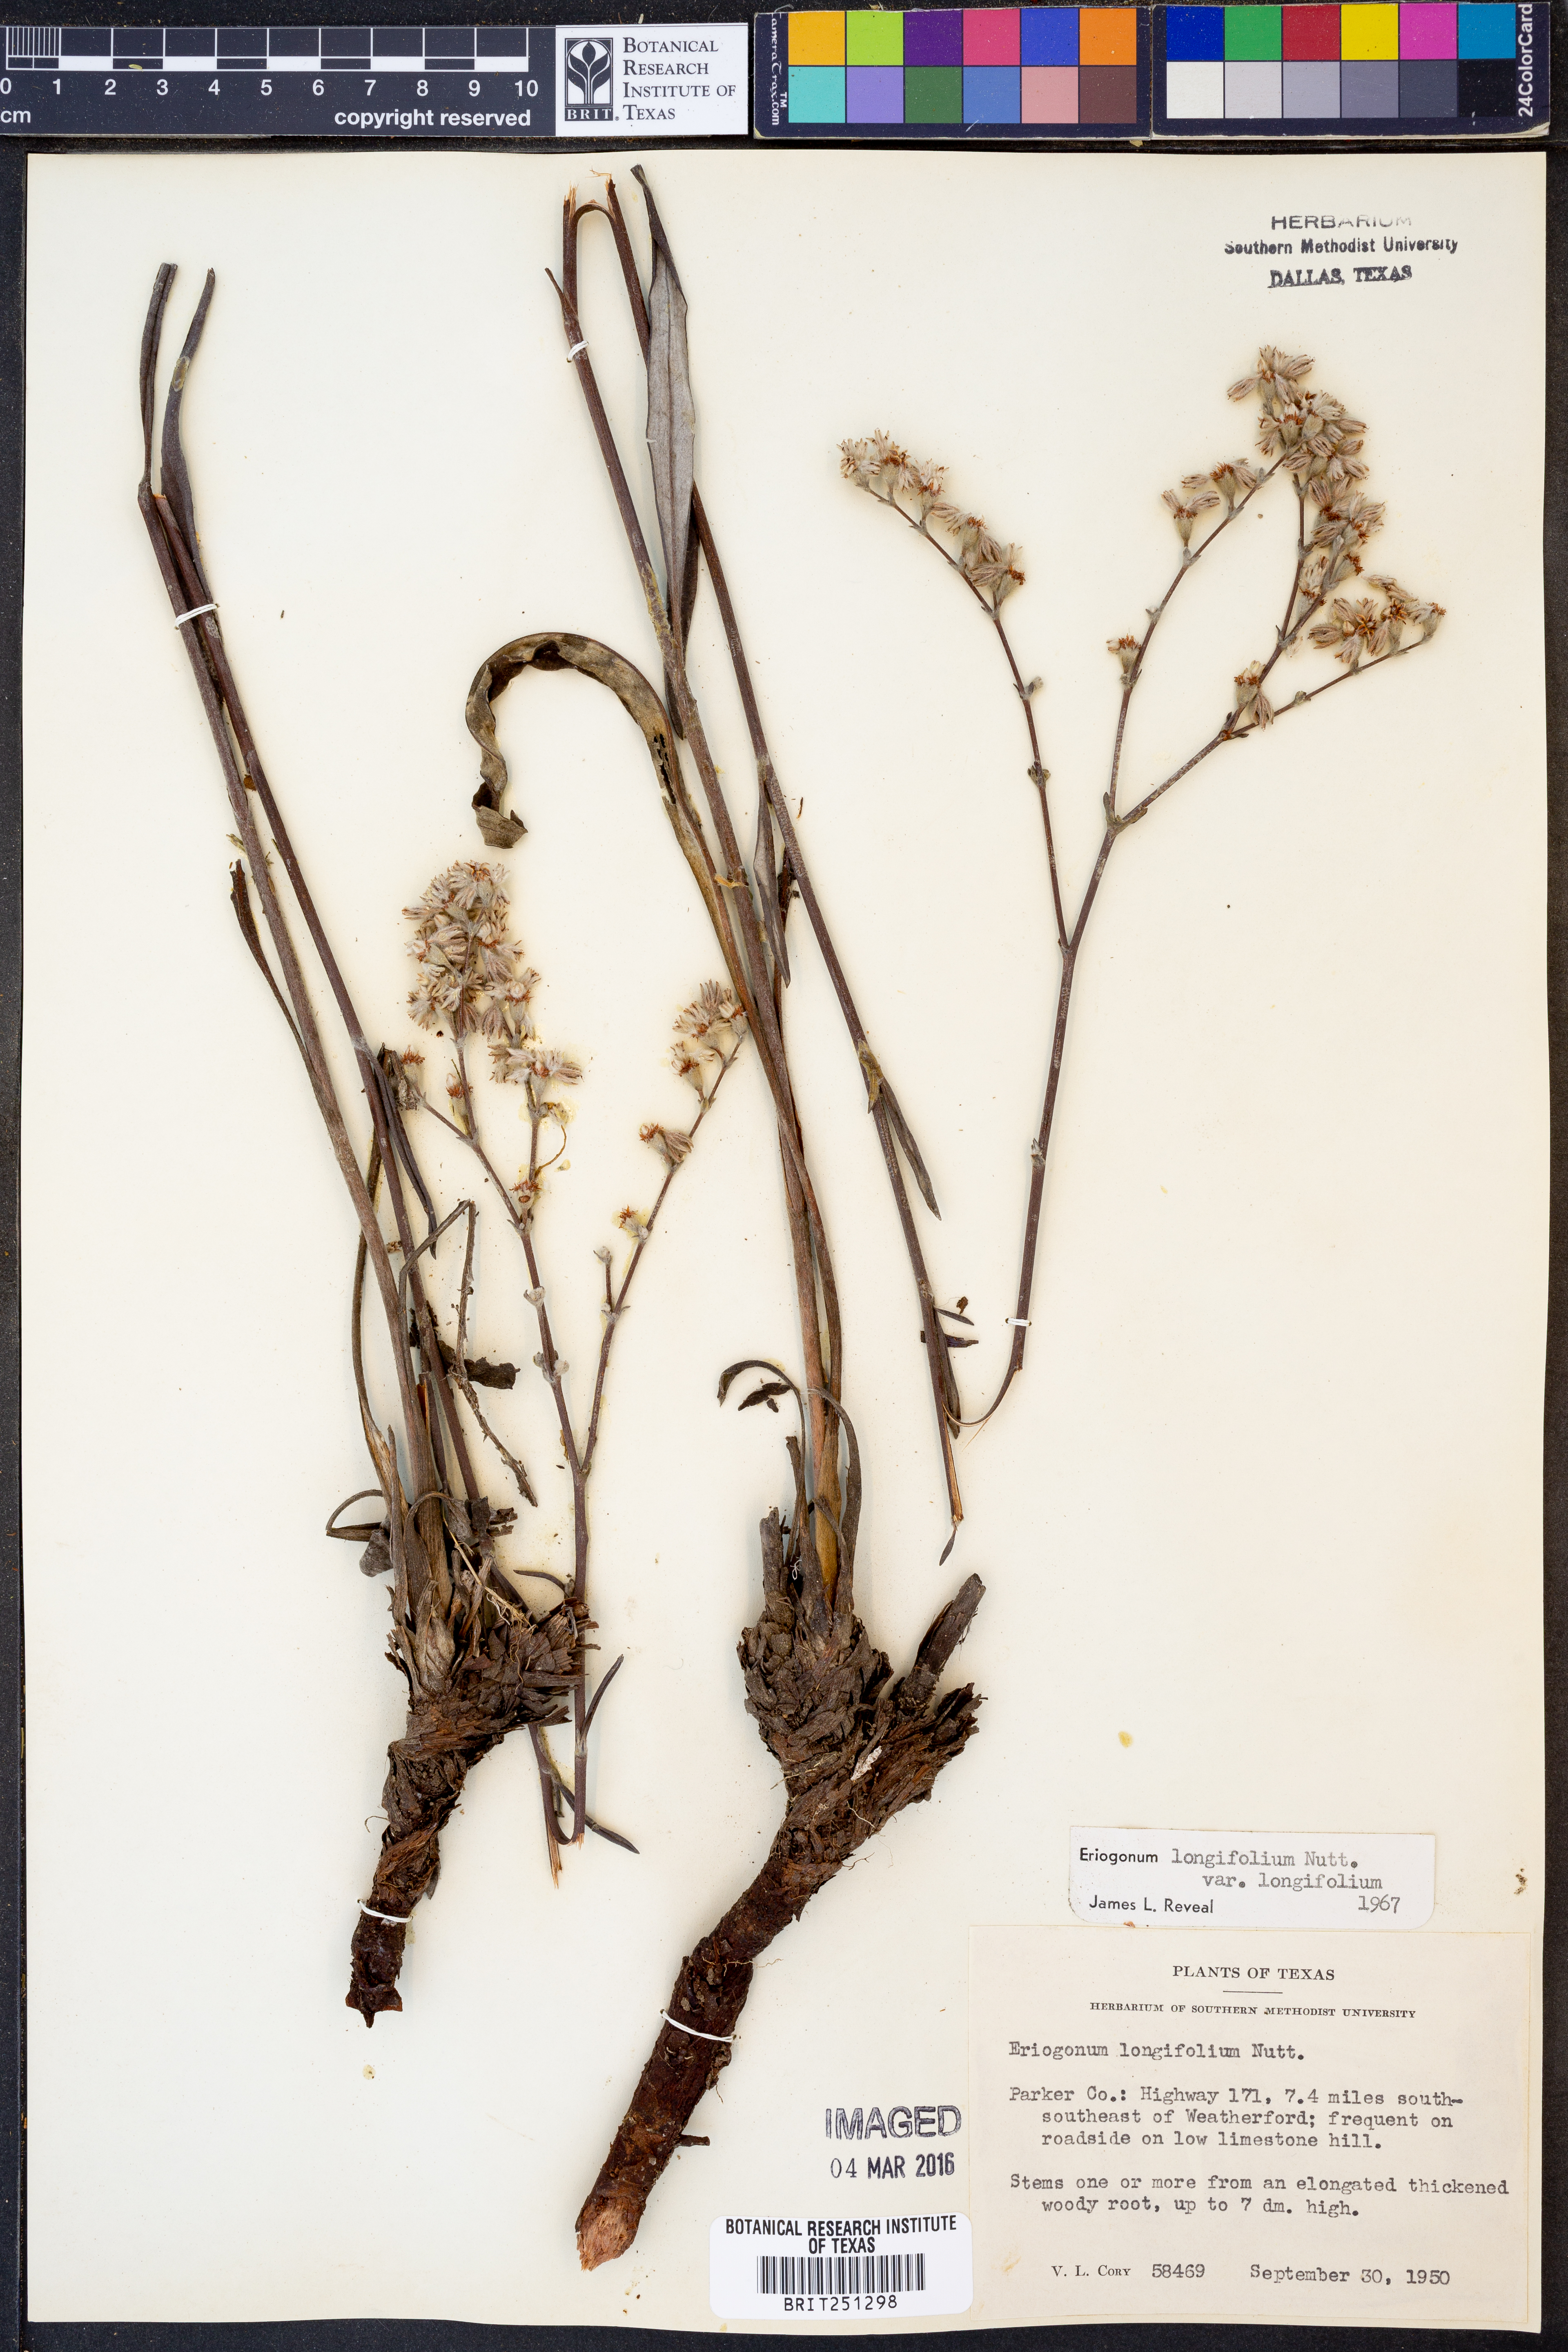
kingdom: Plantae
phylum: Tracheophyta
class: Magnoliopsida
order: Caryophyllales
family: Polygonaceae
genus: Eriogonum
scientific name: Eriogonum longifolium
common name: Longleaf wild buckwheat
